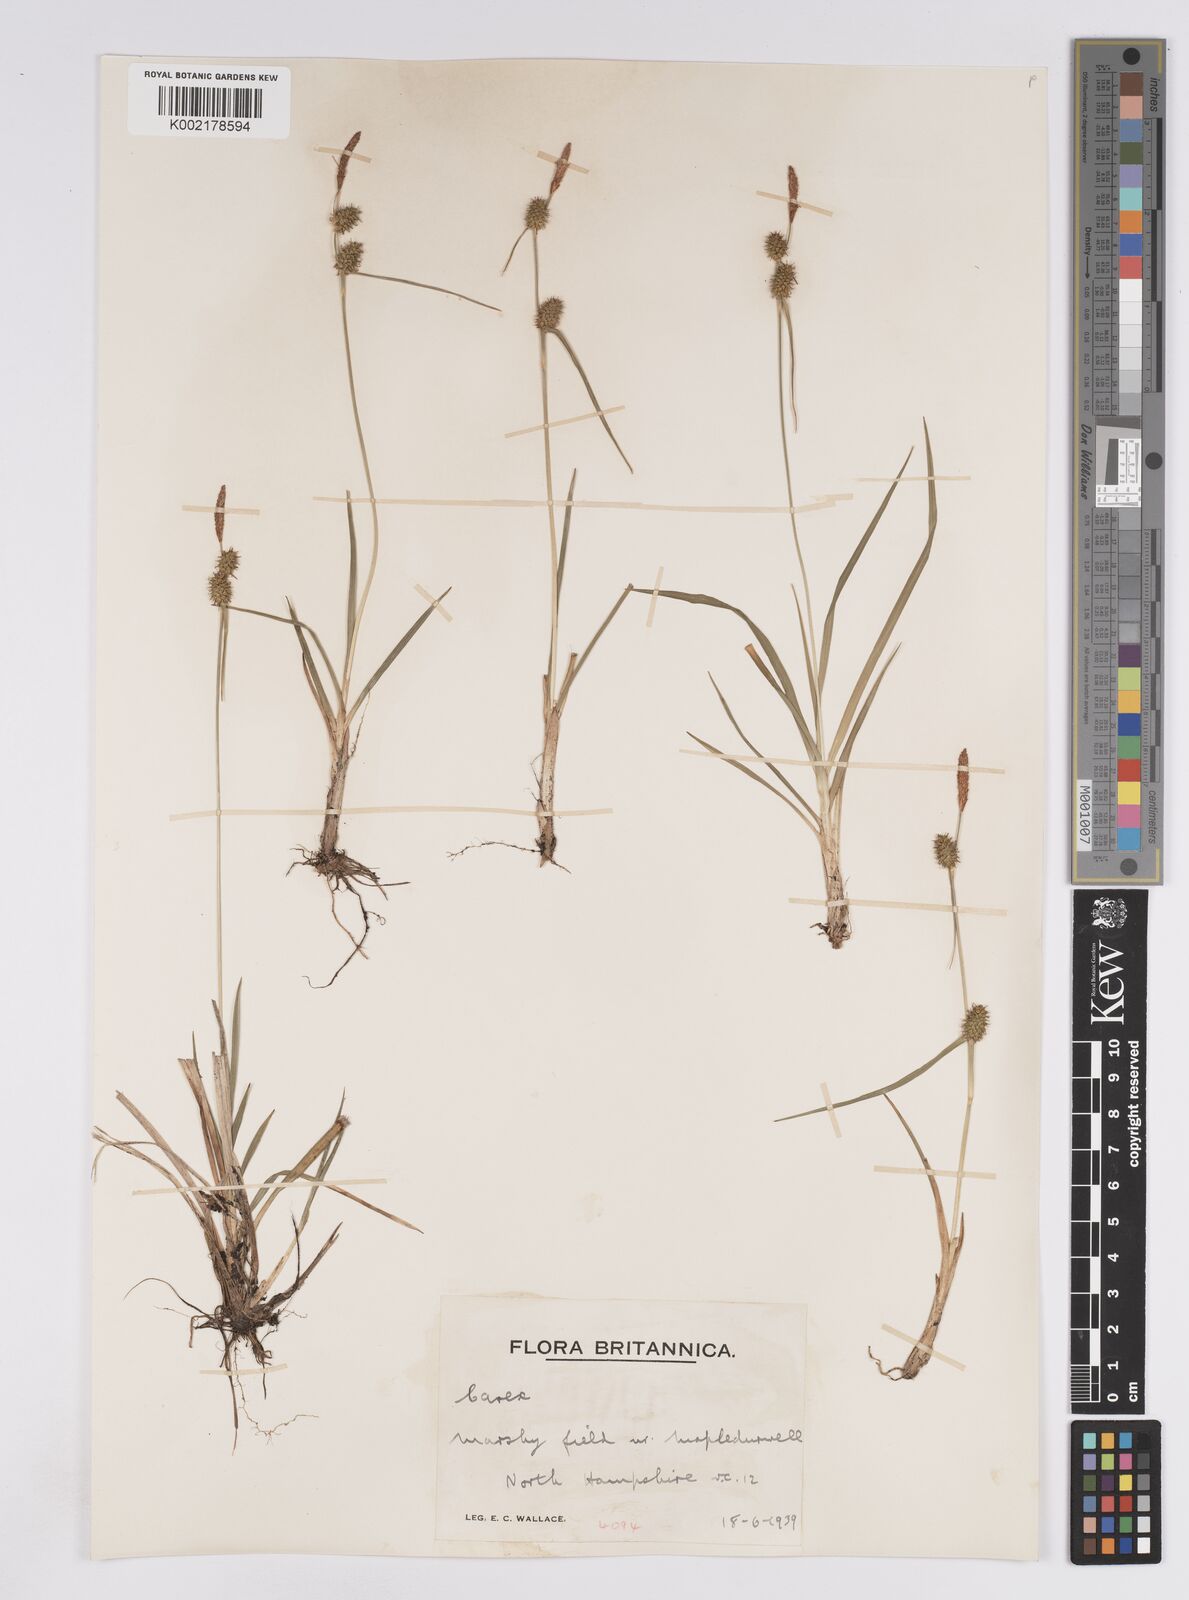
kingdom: Plantae
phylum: Tracheophyta
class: Liliopsida
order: Poales
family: Cyperaceae
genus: Carex
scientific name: Carex lepidocarpa
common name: Long-stalked yellow-sedge
